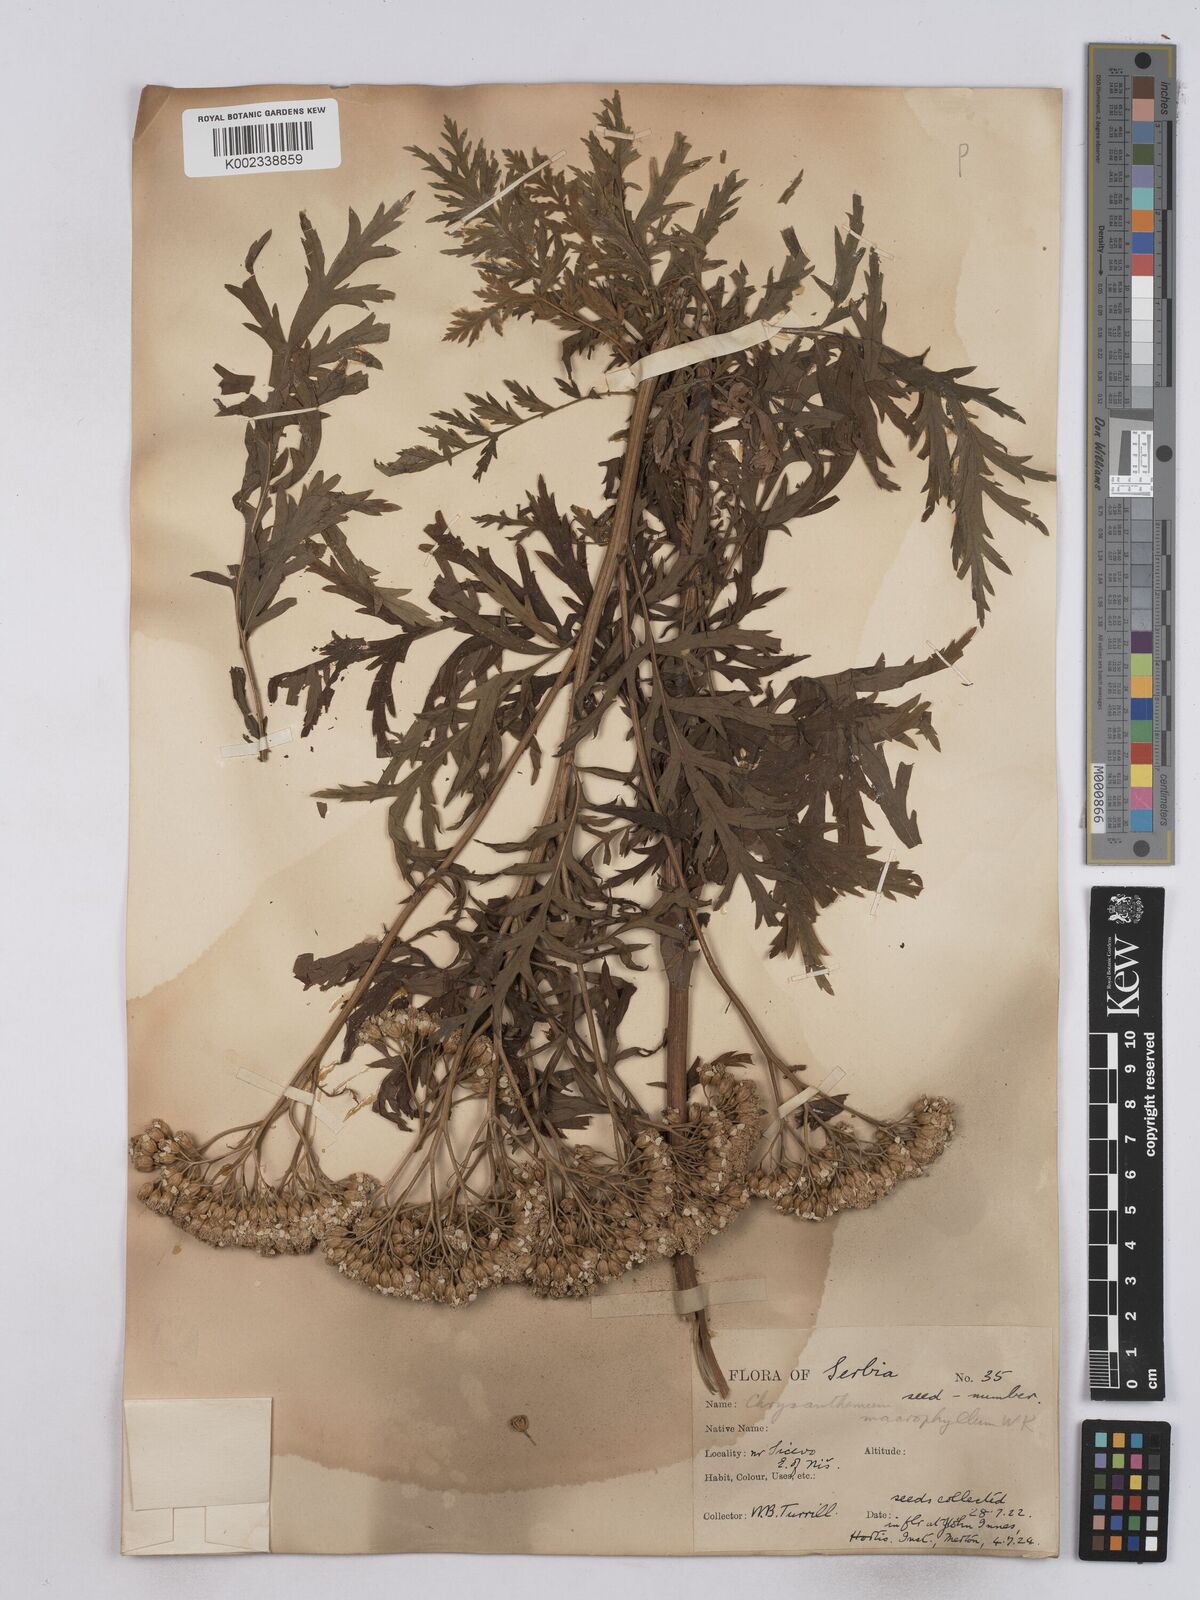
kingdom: Plantae
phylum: Tracheophyta
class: Magnoliopsida
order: Asterales
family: Asteraceae
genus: Tanacetum
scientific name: Tanacetum macrophyllum
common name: Rayed tansy
